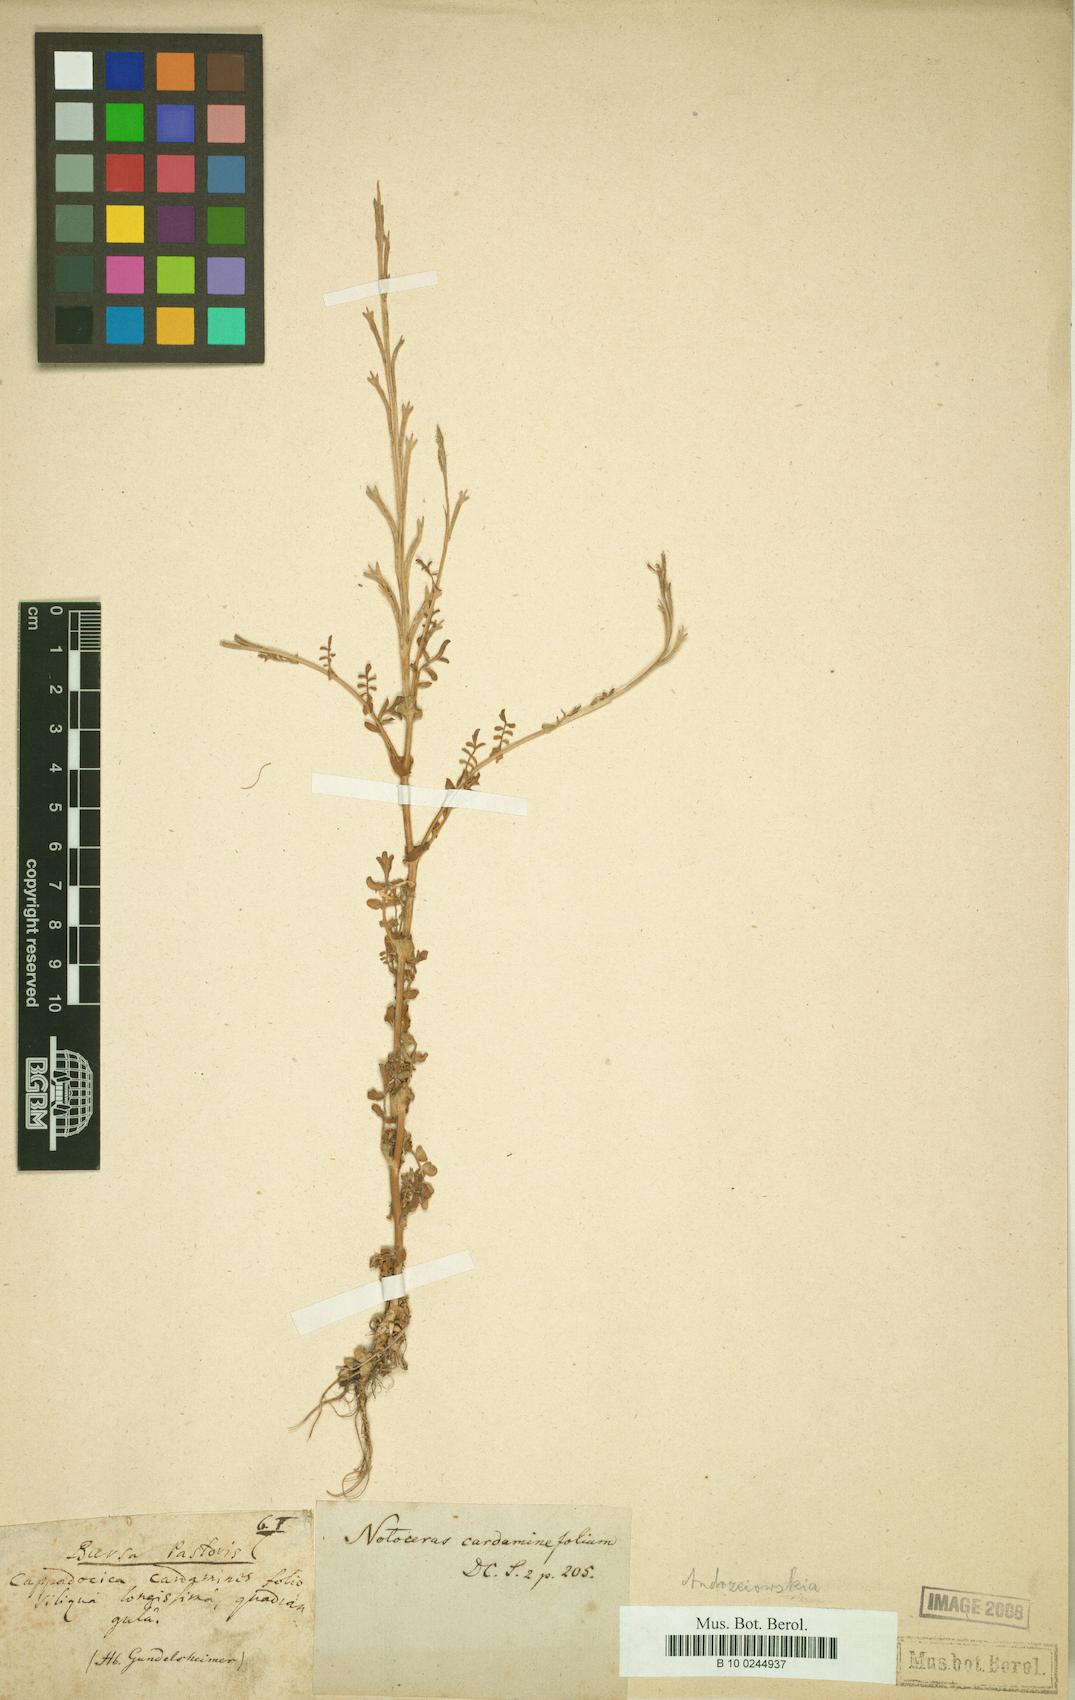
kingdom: Plantae
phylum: Tracheophyta
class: Magnoliopsida
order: Brassicales
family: Brassicaceae
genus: Andrzeiowskia
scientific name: Andrzeiowskia
